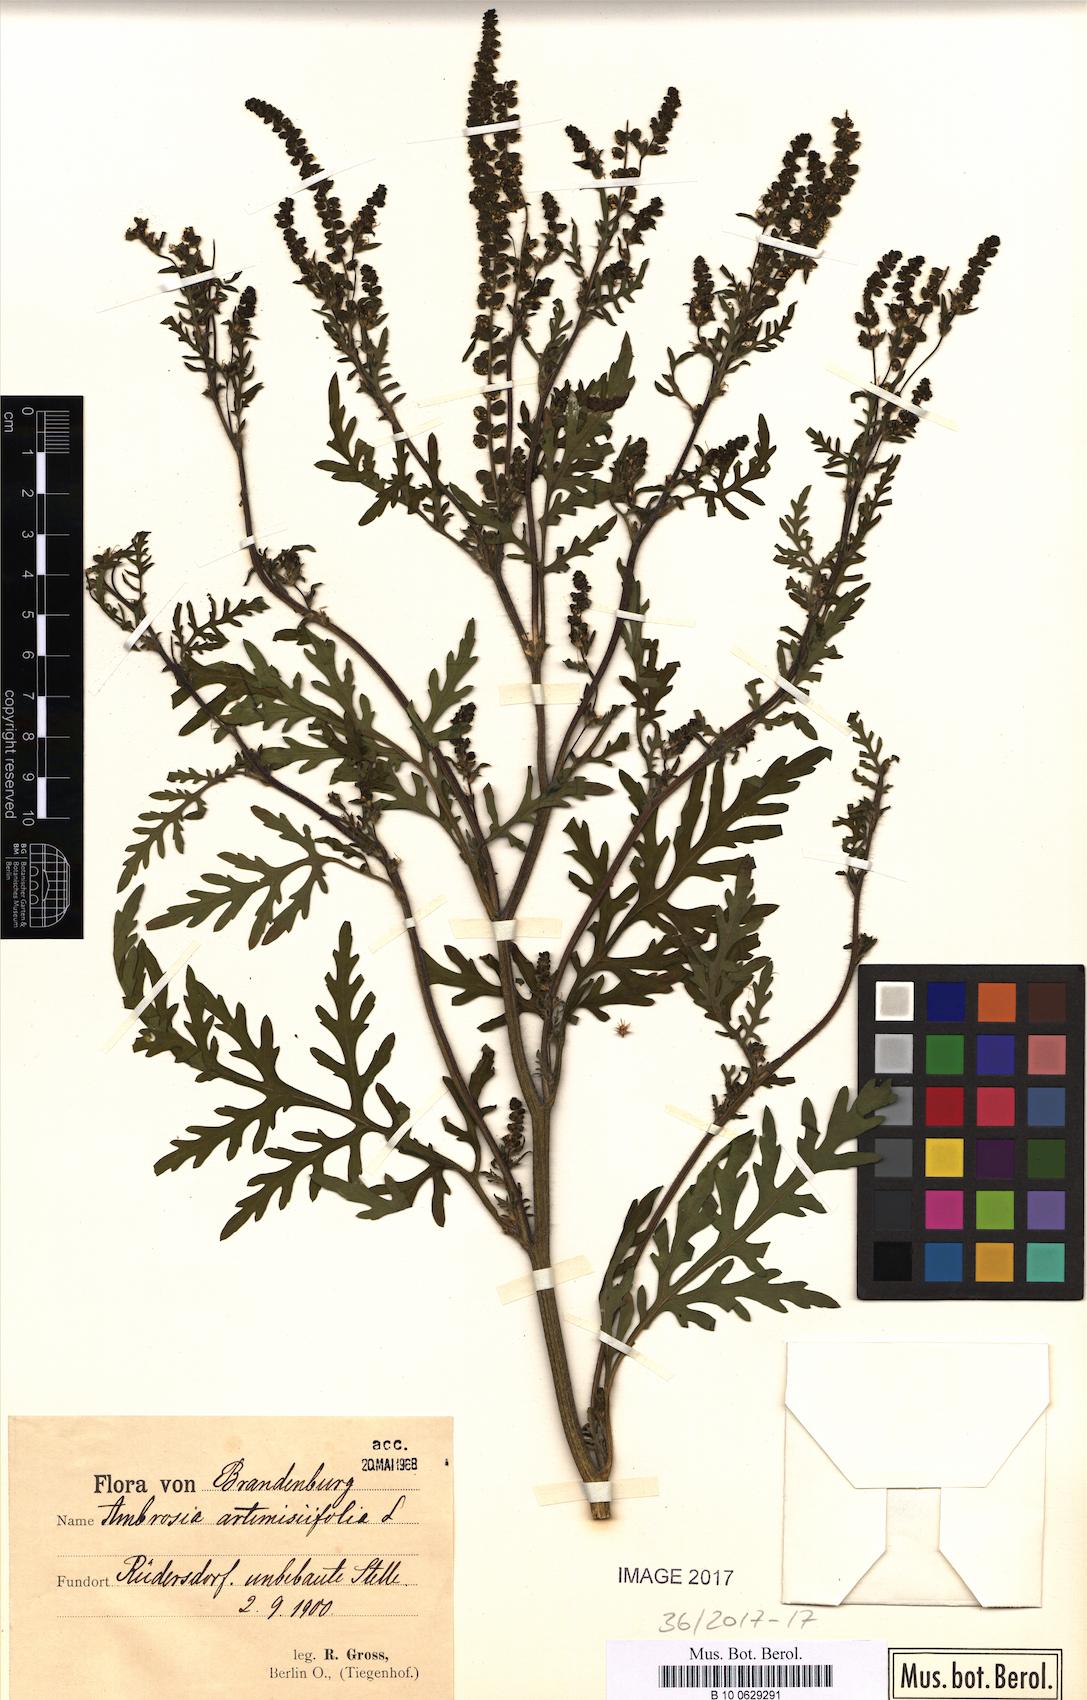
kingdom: Plantae
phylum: Tracheophyta
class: Magnoliopsida
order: Asterales
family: Asteraceae
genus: Ambrosia
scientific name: Ambrosia artemisiifolia
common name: Annual ragweed
